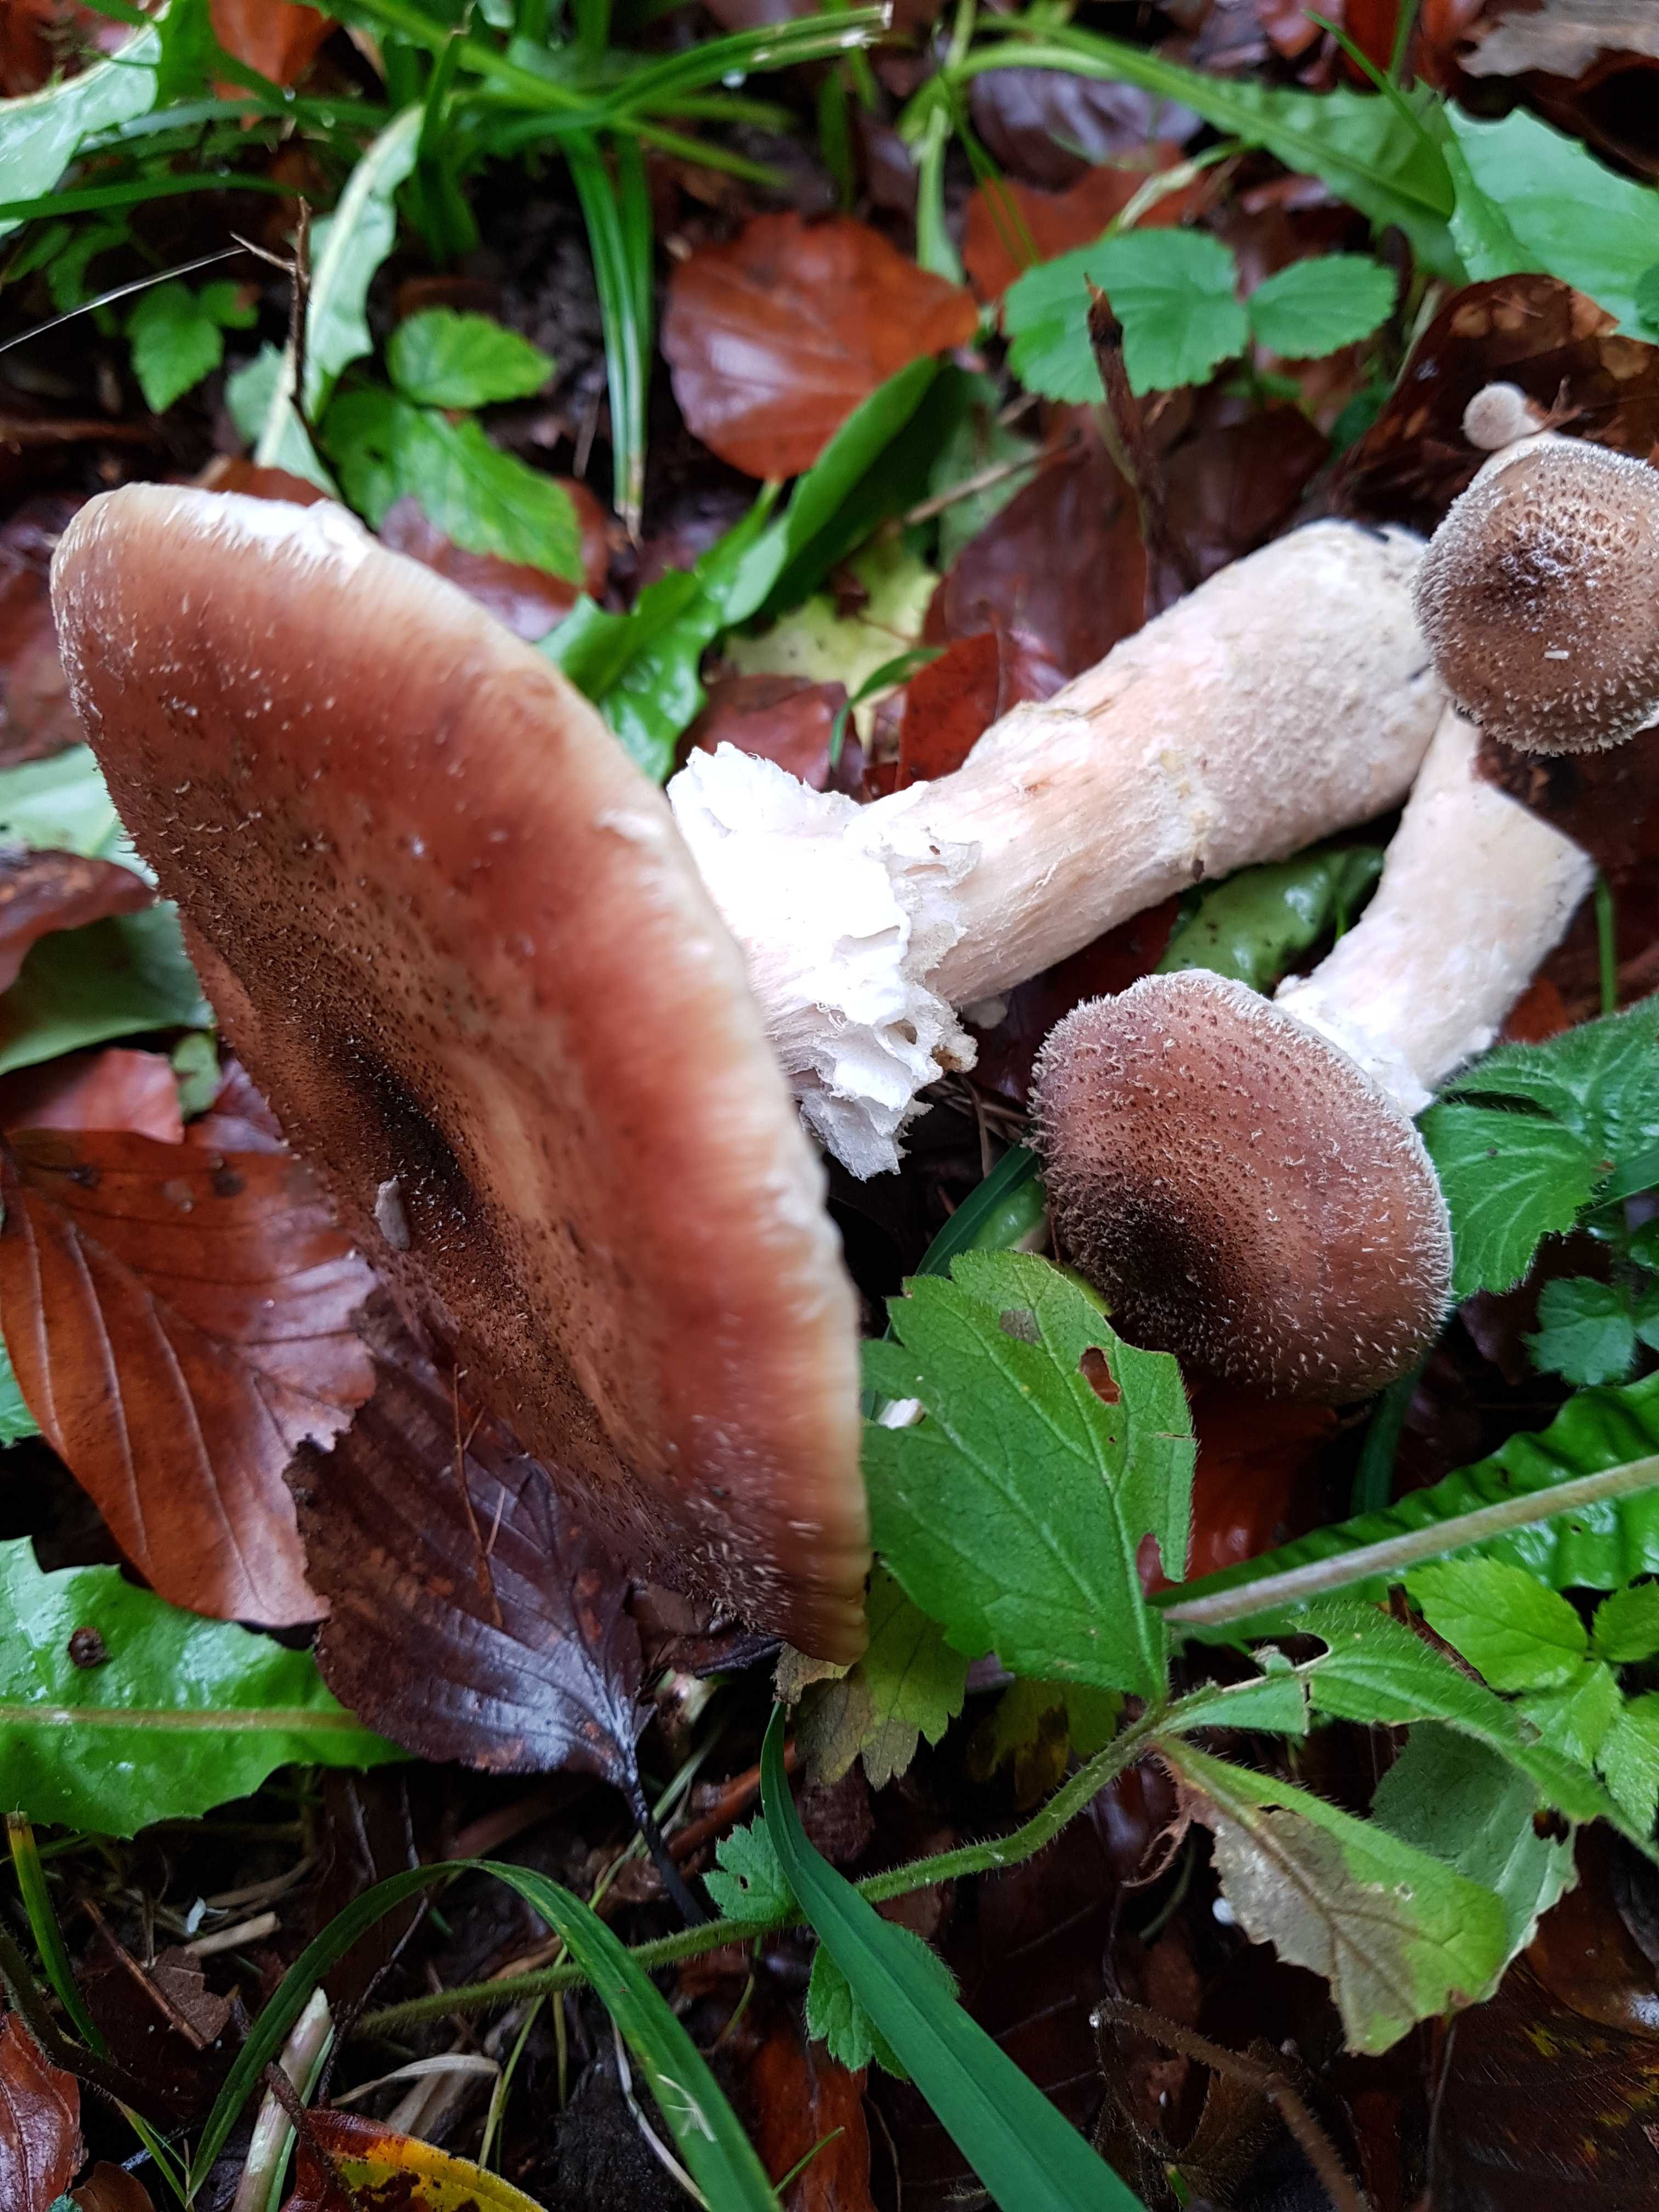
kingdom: Fungi
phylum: Basidiomycota
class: Agaricomycetes
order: Agaricales
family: Physalacriaceae
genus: Armillaria
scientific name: Armillaria lutea
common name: køllestokket honningsvamp
